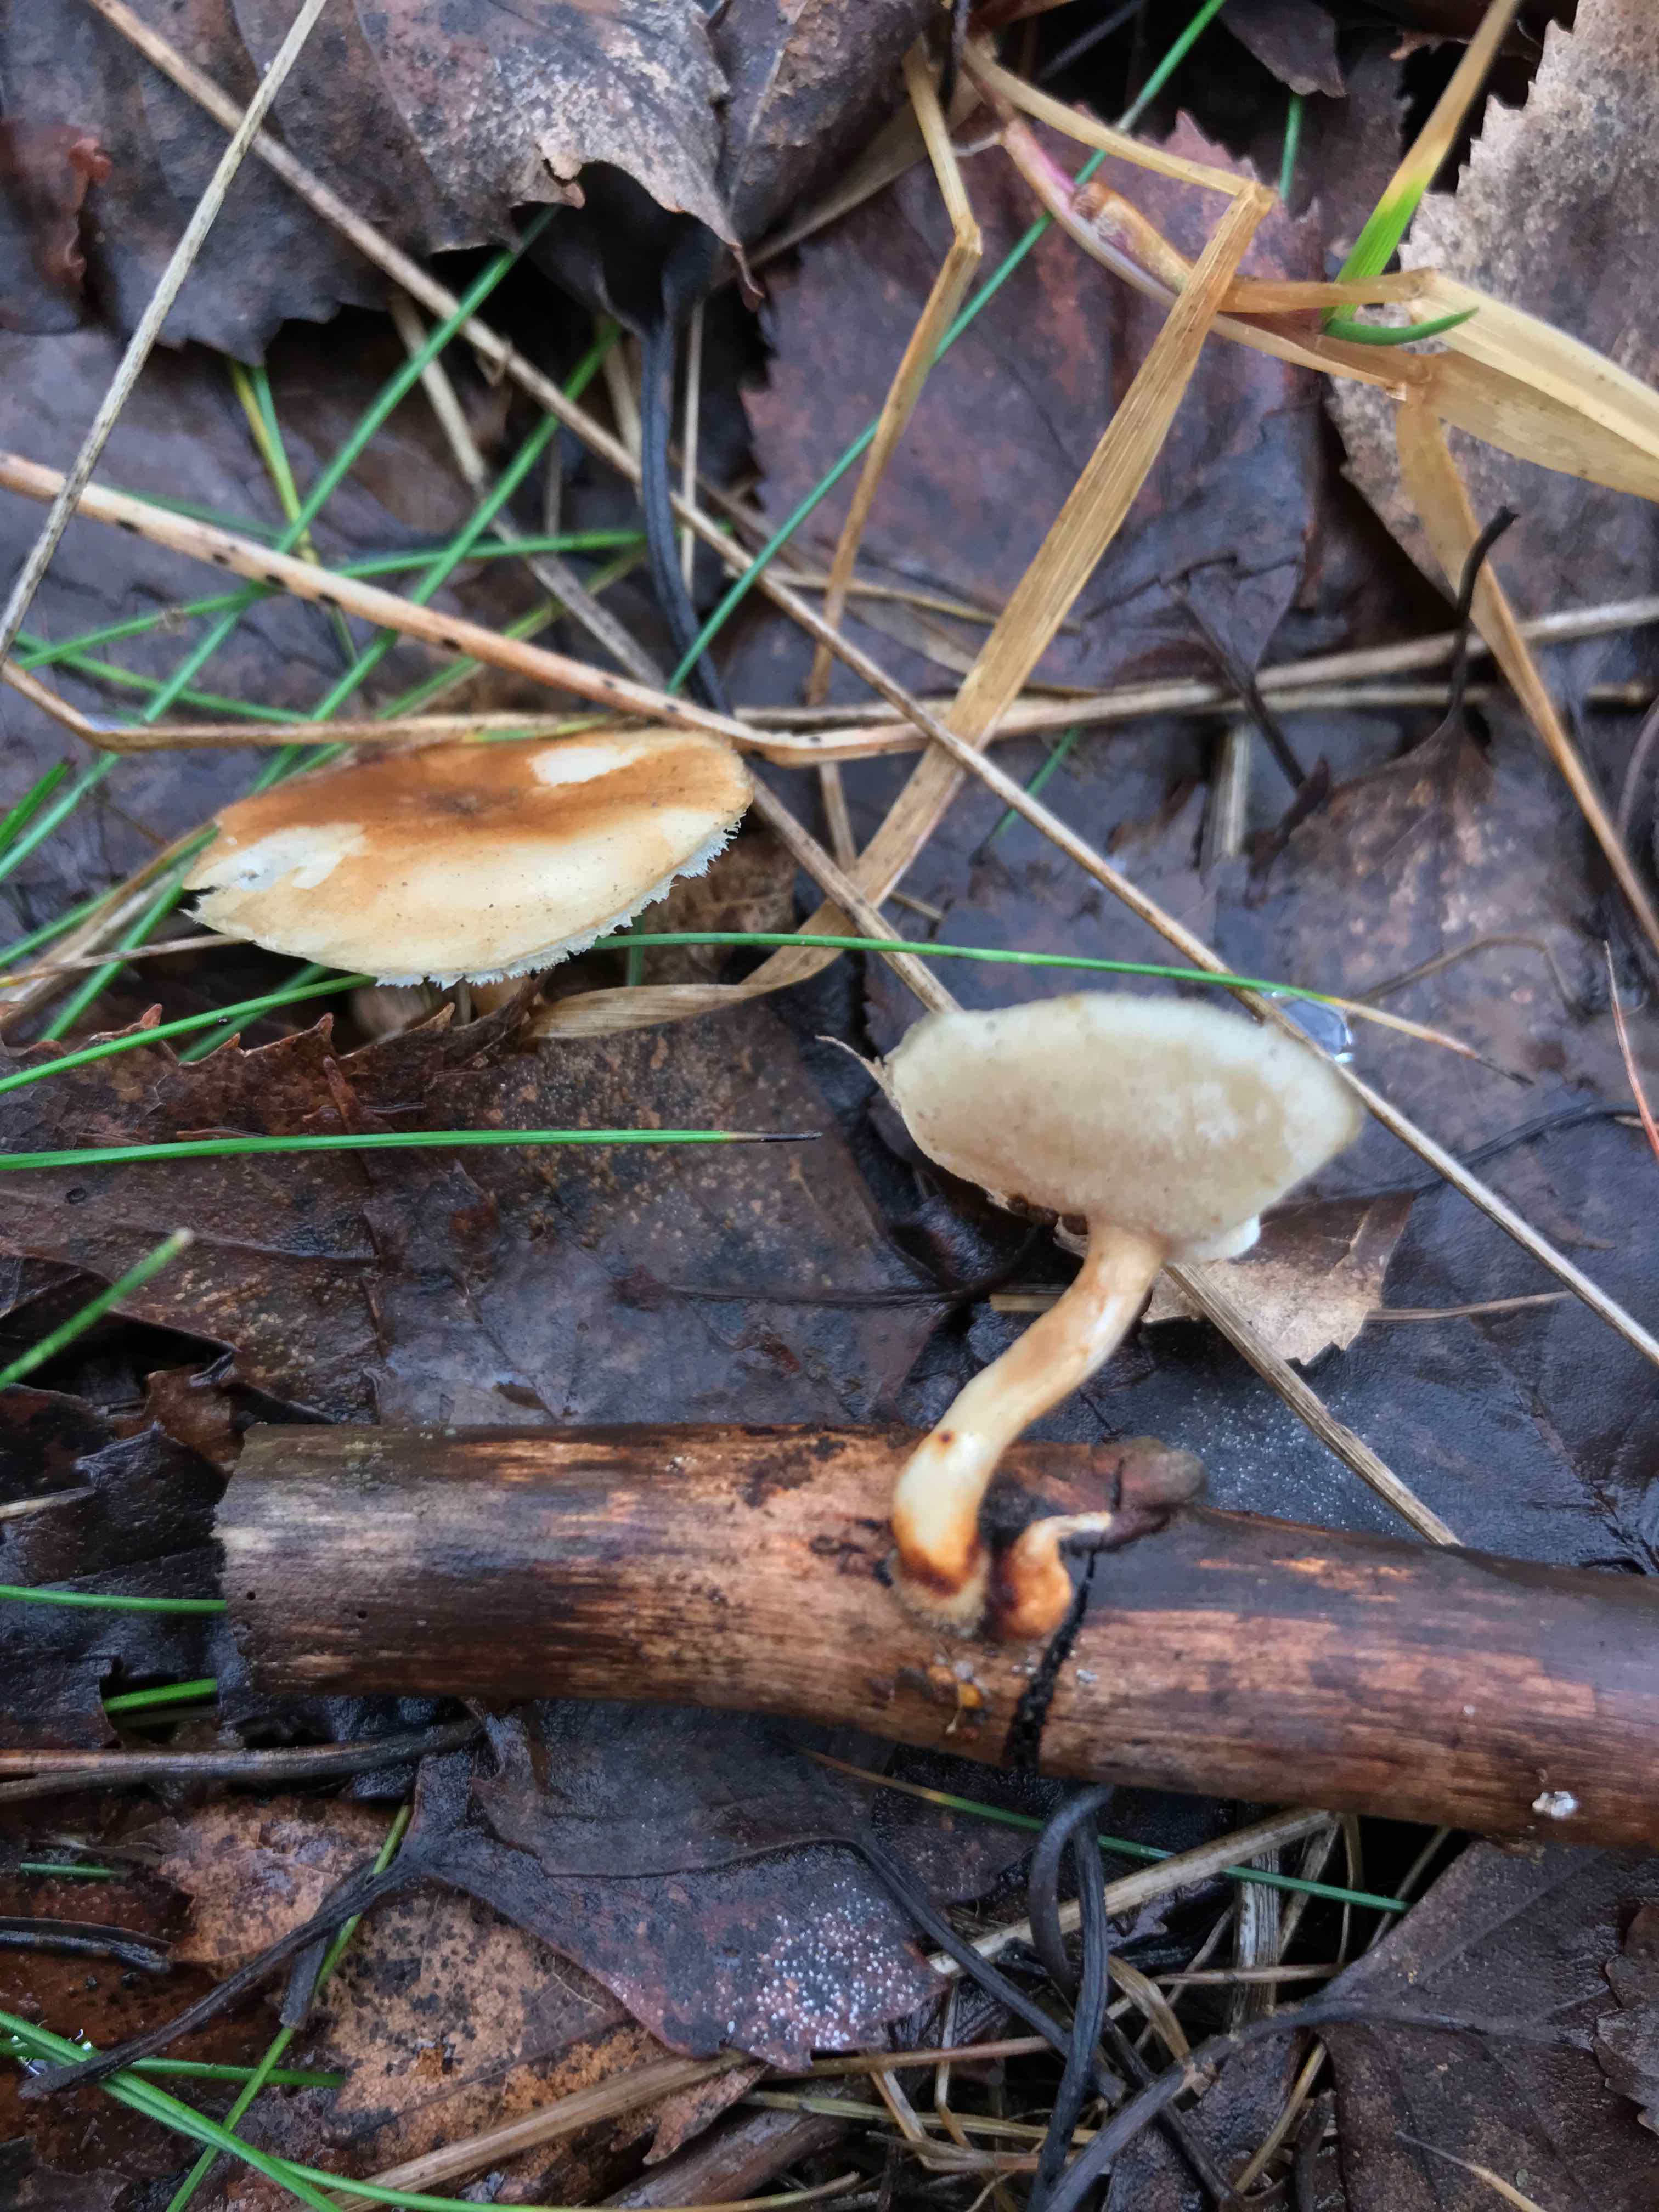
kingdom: Fungi
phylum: Basidiomycota
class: Agaricomycetes
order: Polyporales
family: Polyporaceae
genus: Lentinus
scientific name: Lentinus brumalis
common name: vinter-stilkporesvamp
